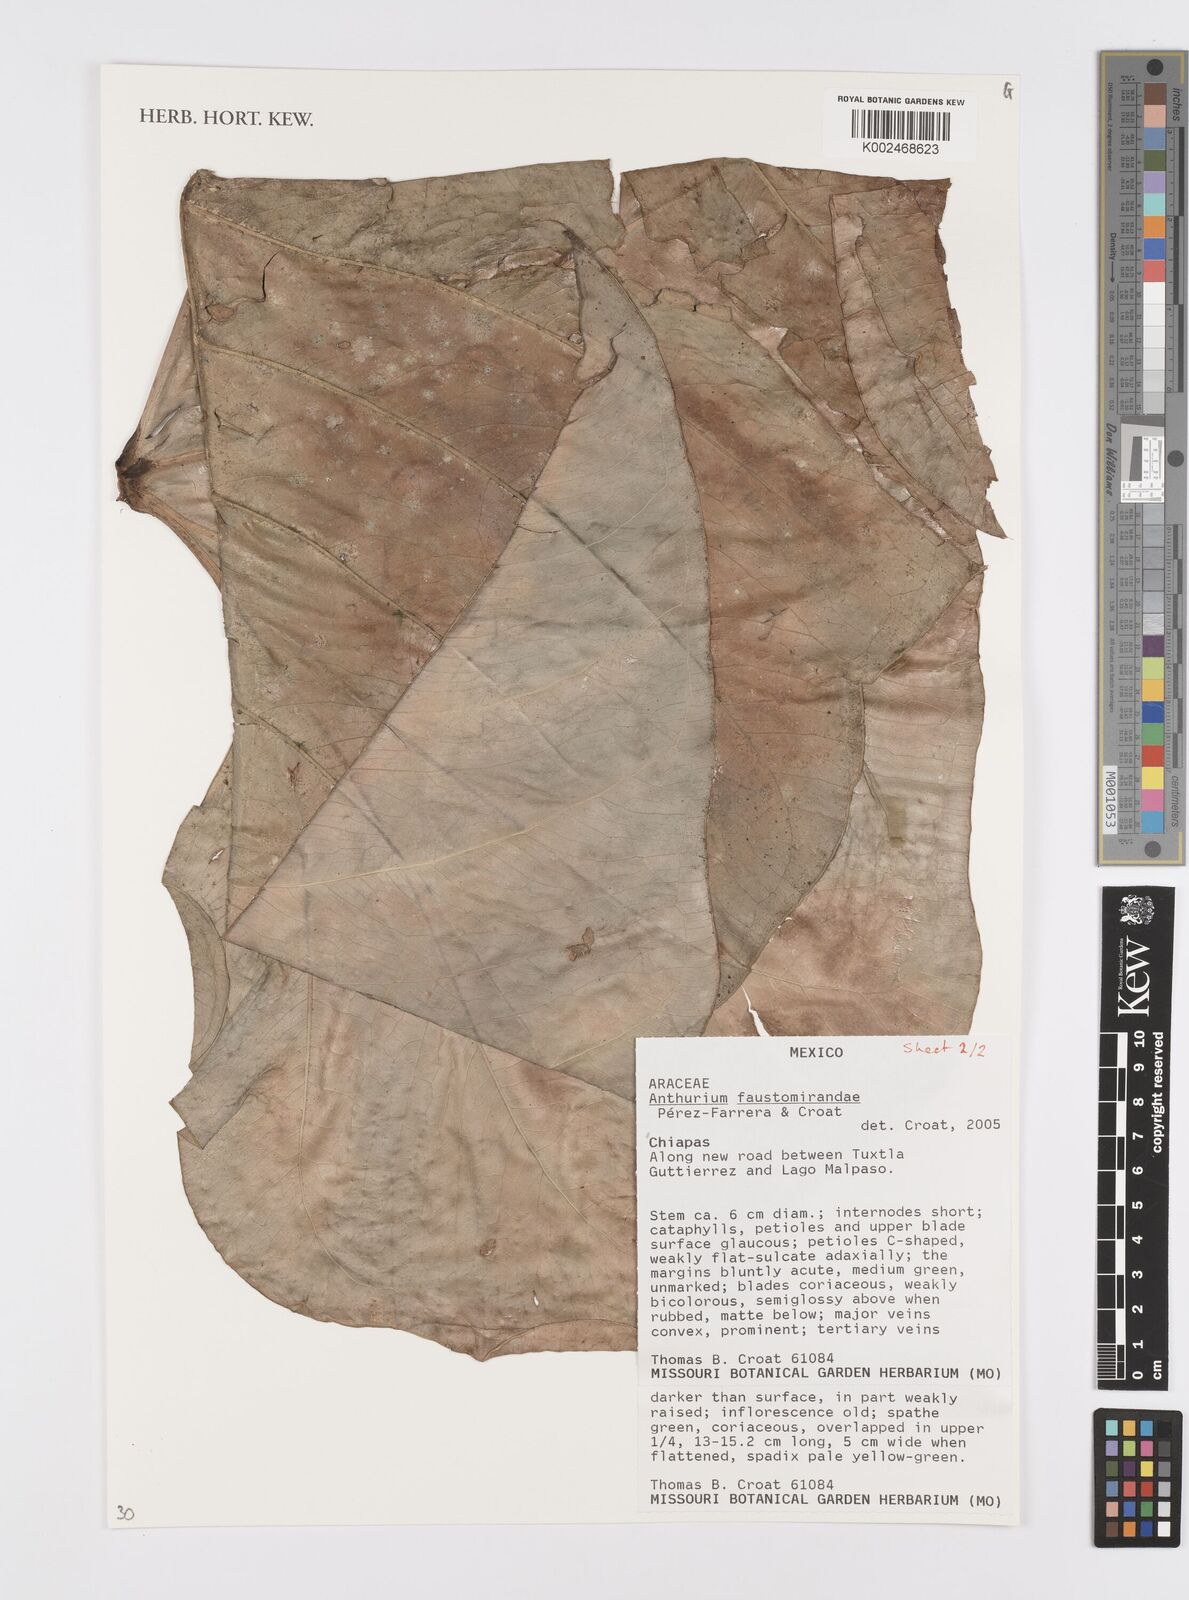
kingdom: Plantae
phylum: Tracheophyta
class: Liliopsida
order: Alismatales
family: Araceae
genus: Anthurium
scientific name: Anthurium faustomirandae
